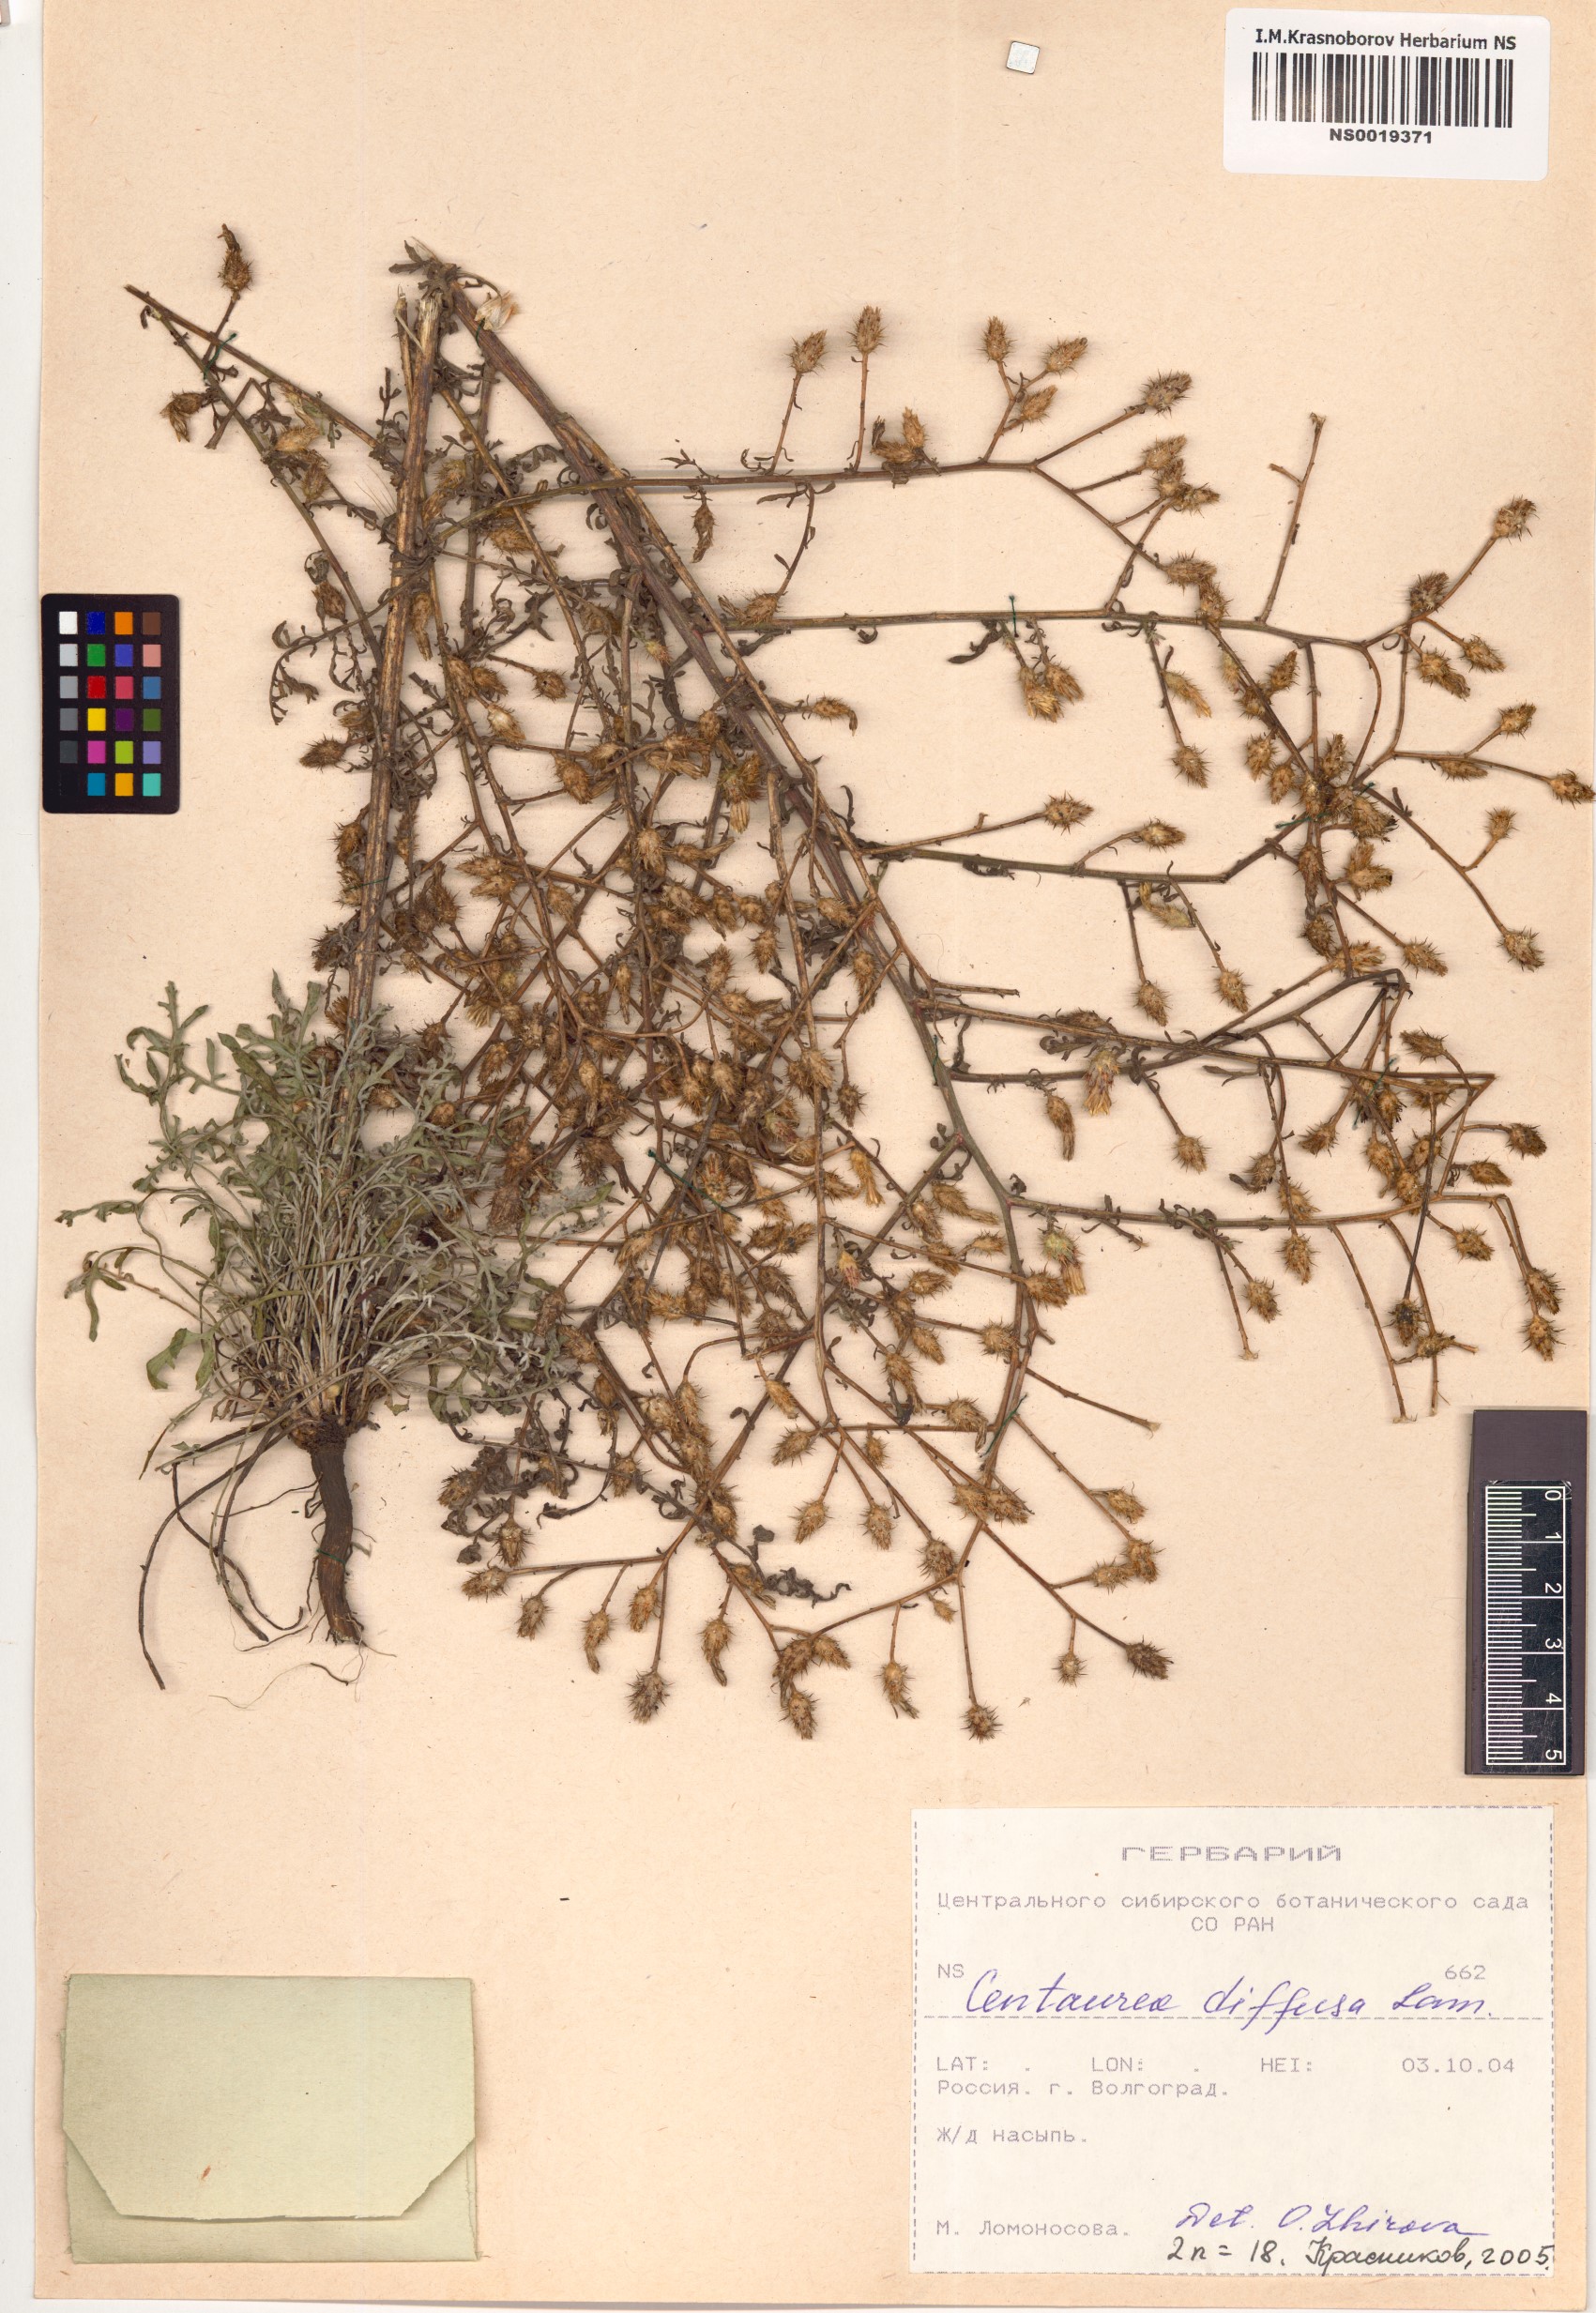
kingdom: Plantae
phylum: Tracheophyta
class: Magnoliopsida
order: Asterales
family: Asteraceae
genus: Centaurea
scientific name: Centaurea diffusa
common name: Diffuse knapweed
